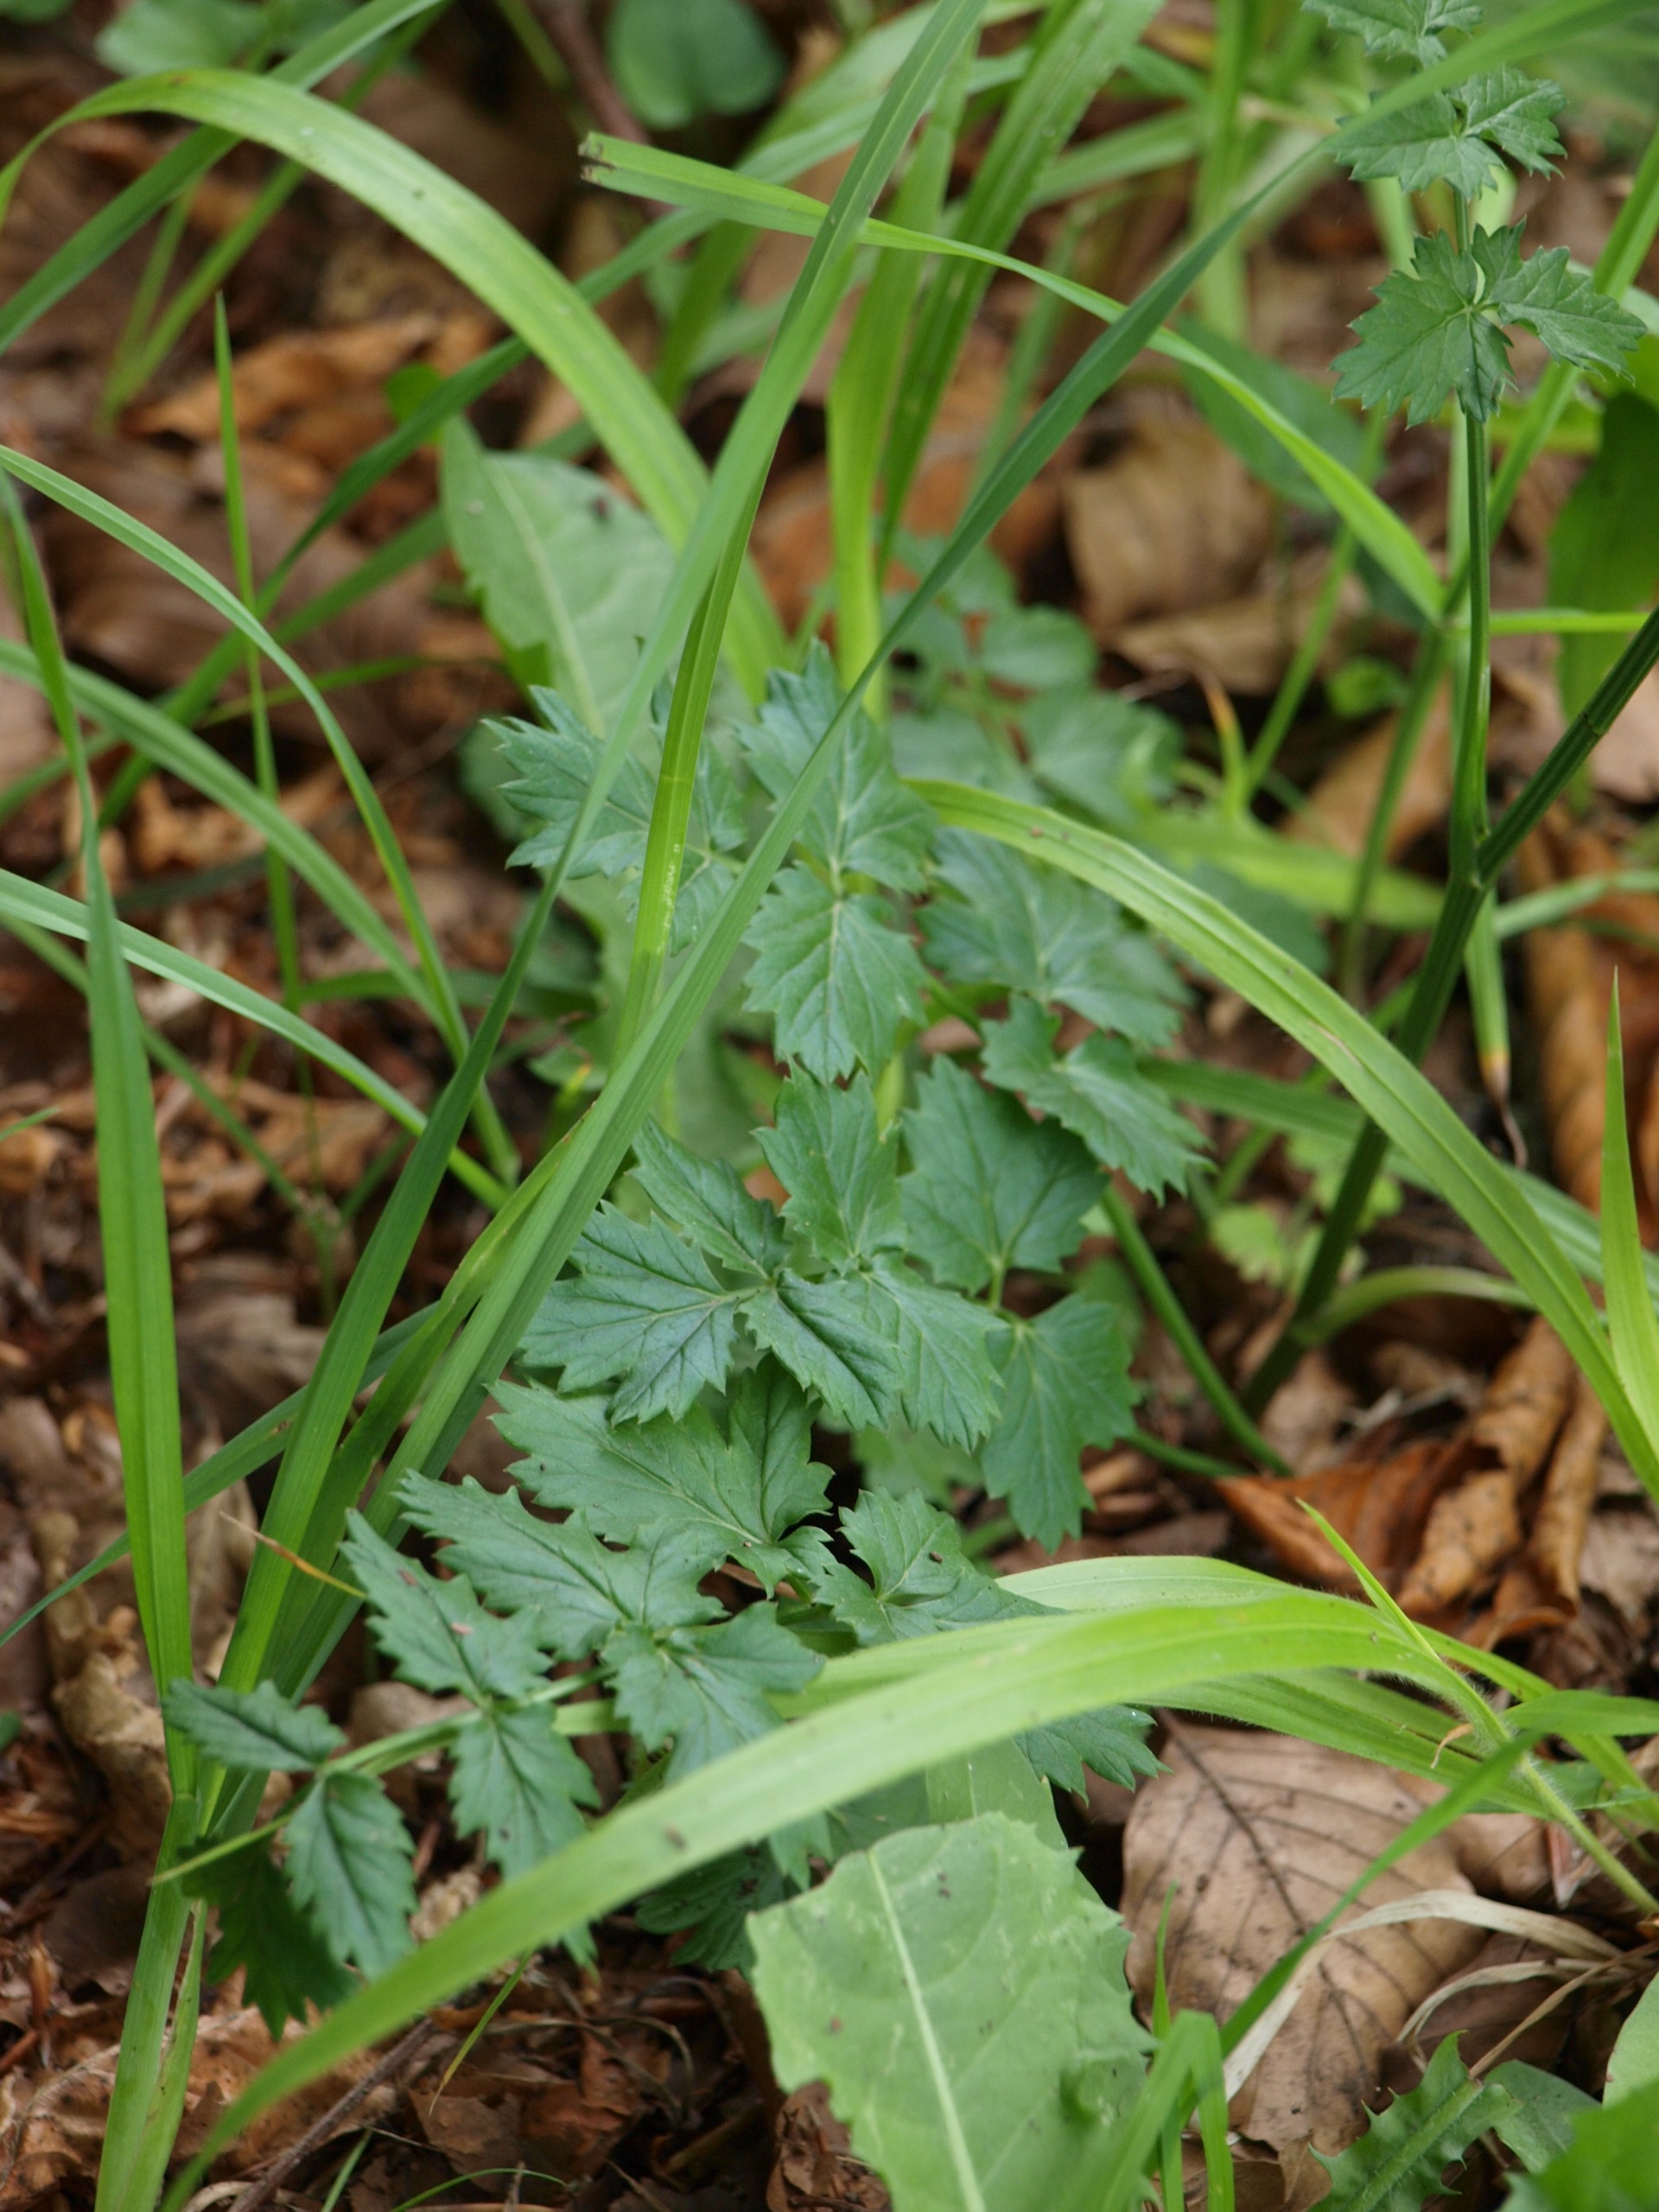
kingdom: Plantae
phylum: Tracheophyta
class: Magnoliopsida
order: Apiales
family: Apiaceae
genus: Pimpinella
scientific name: Pimpinella saxifraga
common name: Almindelig pimpinelle
